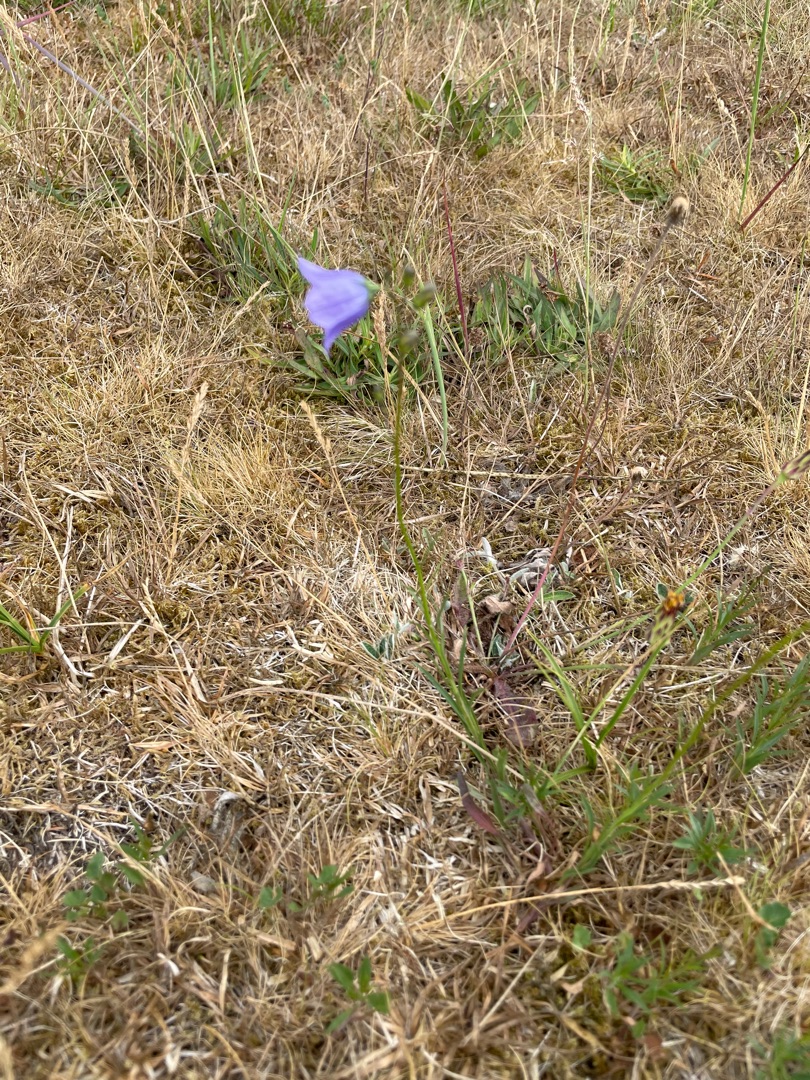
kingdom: Plantae
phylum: Tracheophyta
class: Magnoliopsida
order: Asterales
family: Campanulaceae
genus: Campanula
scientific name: Campanula rotundifolia
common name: Liden klokke
